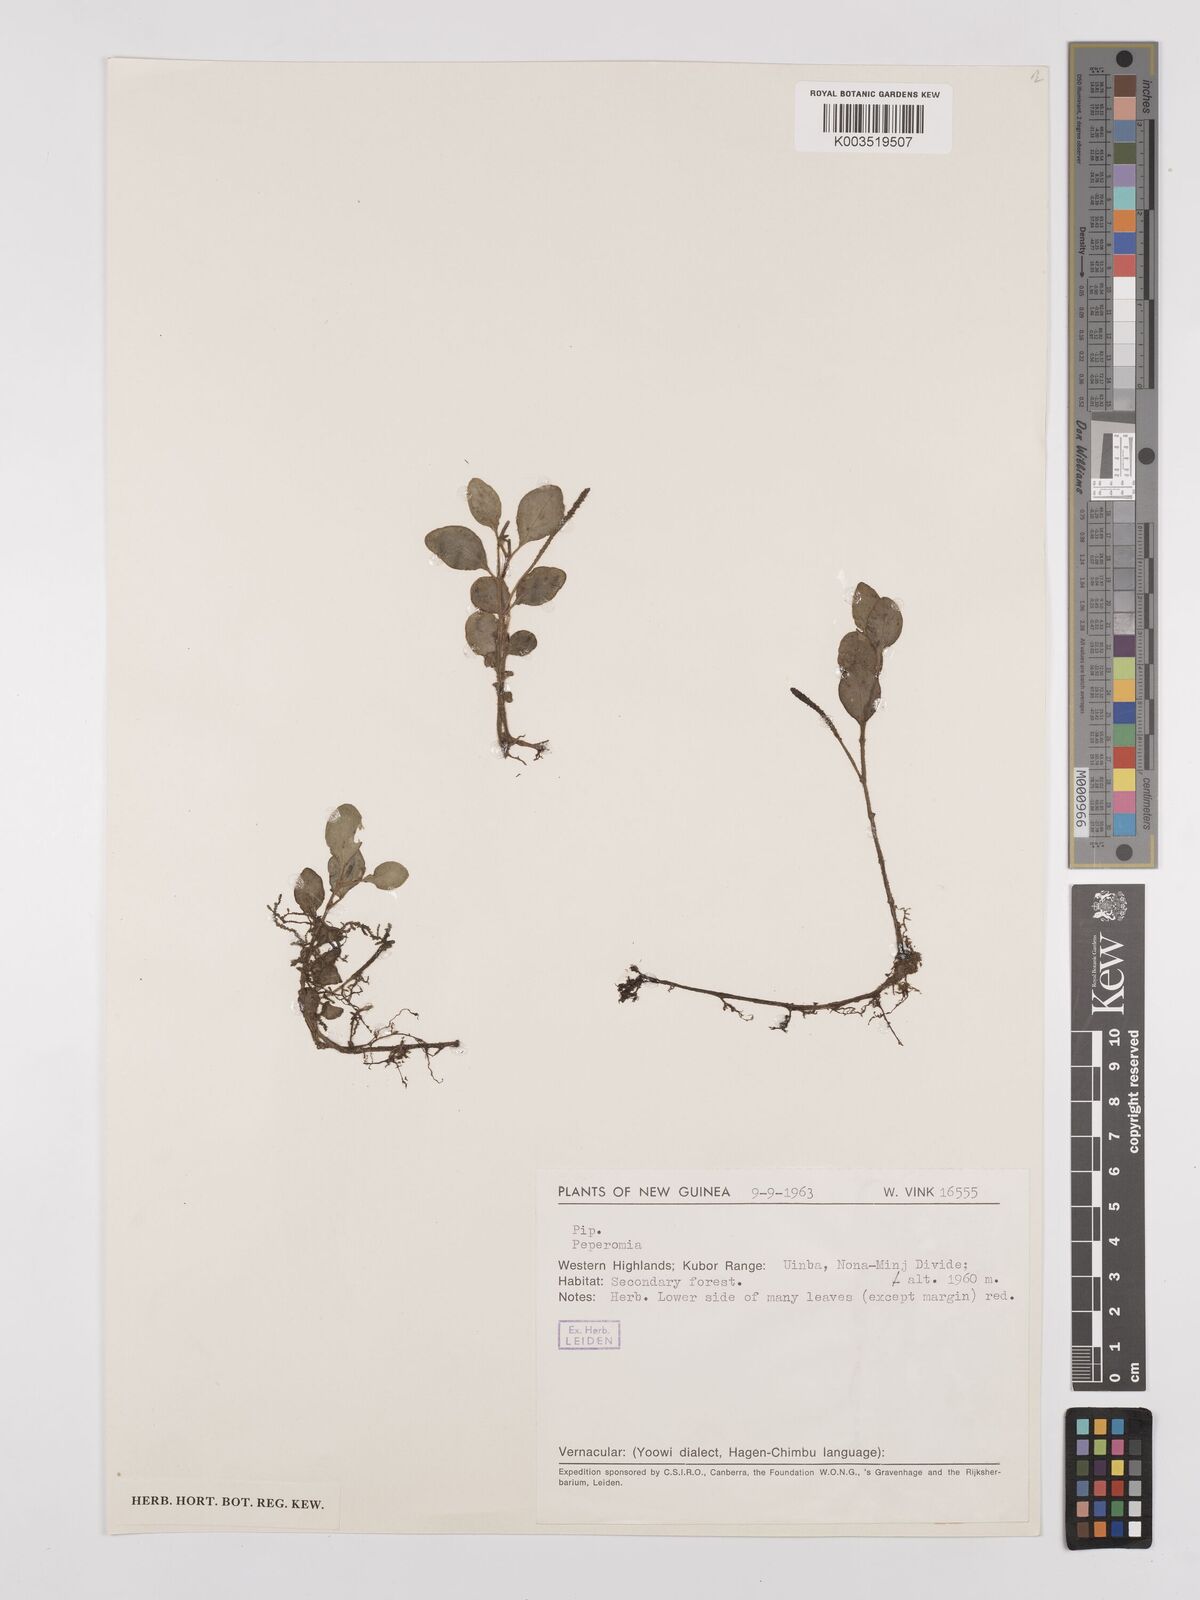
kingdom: Plantae
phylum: Tracheophyta
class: Magnoliopsida
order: Piperales
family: Piperaceae
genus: Peperomia
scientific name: Peperomia
